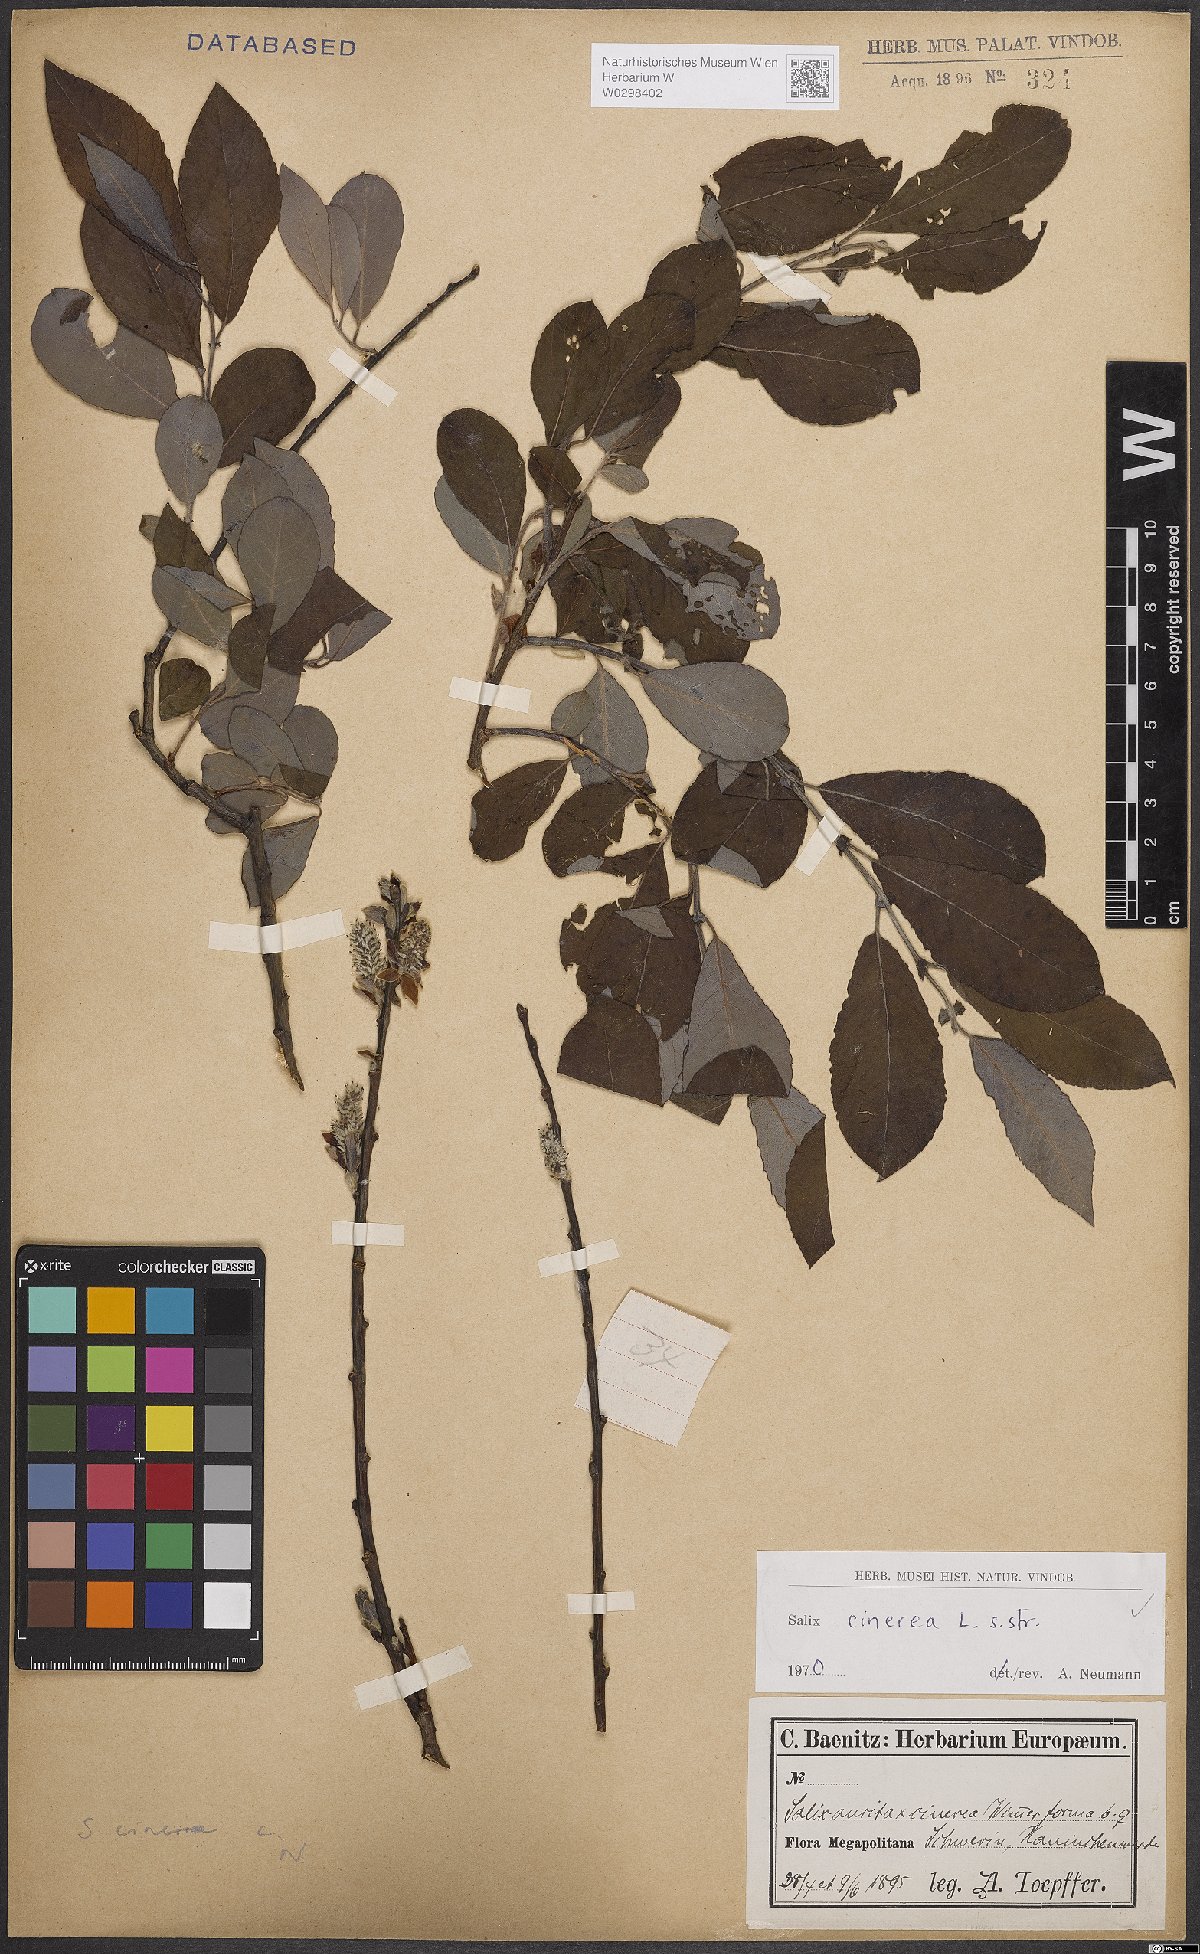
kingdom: Plantae
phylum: Tracheophyta
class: Magnoliopsida
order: Malpighiales
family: Salicaceae
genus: Salix
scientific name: Salix cinerea
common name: Common sallow
